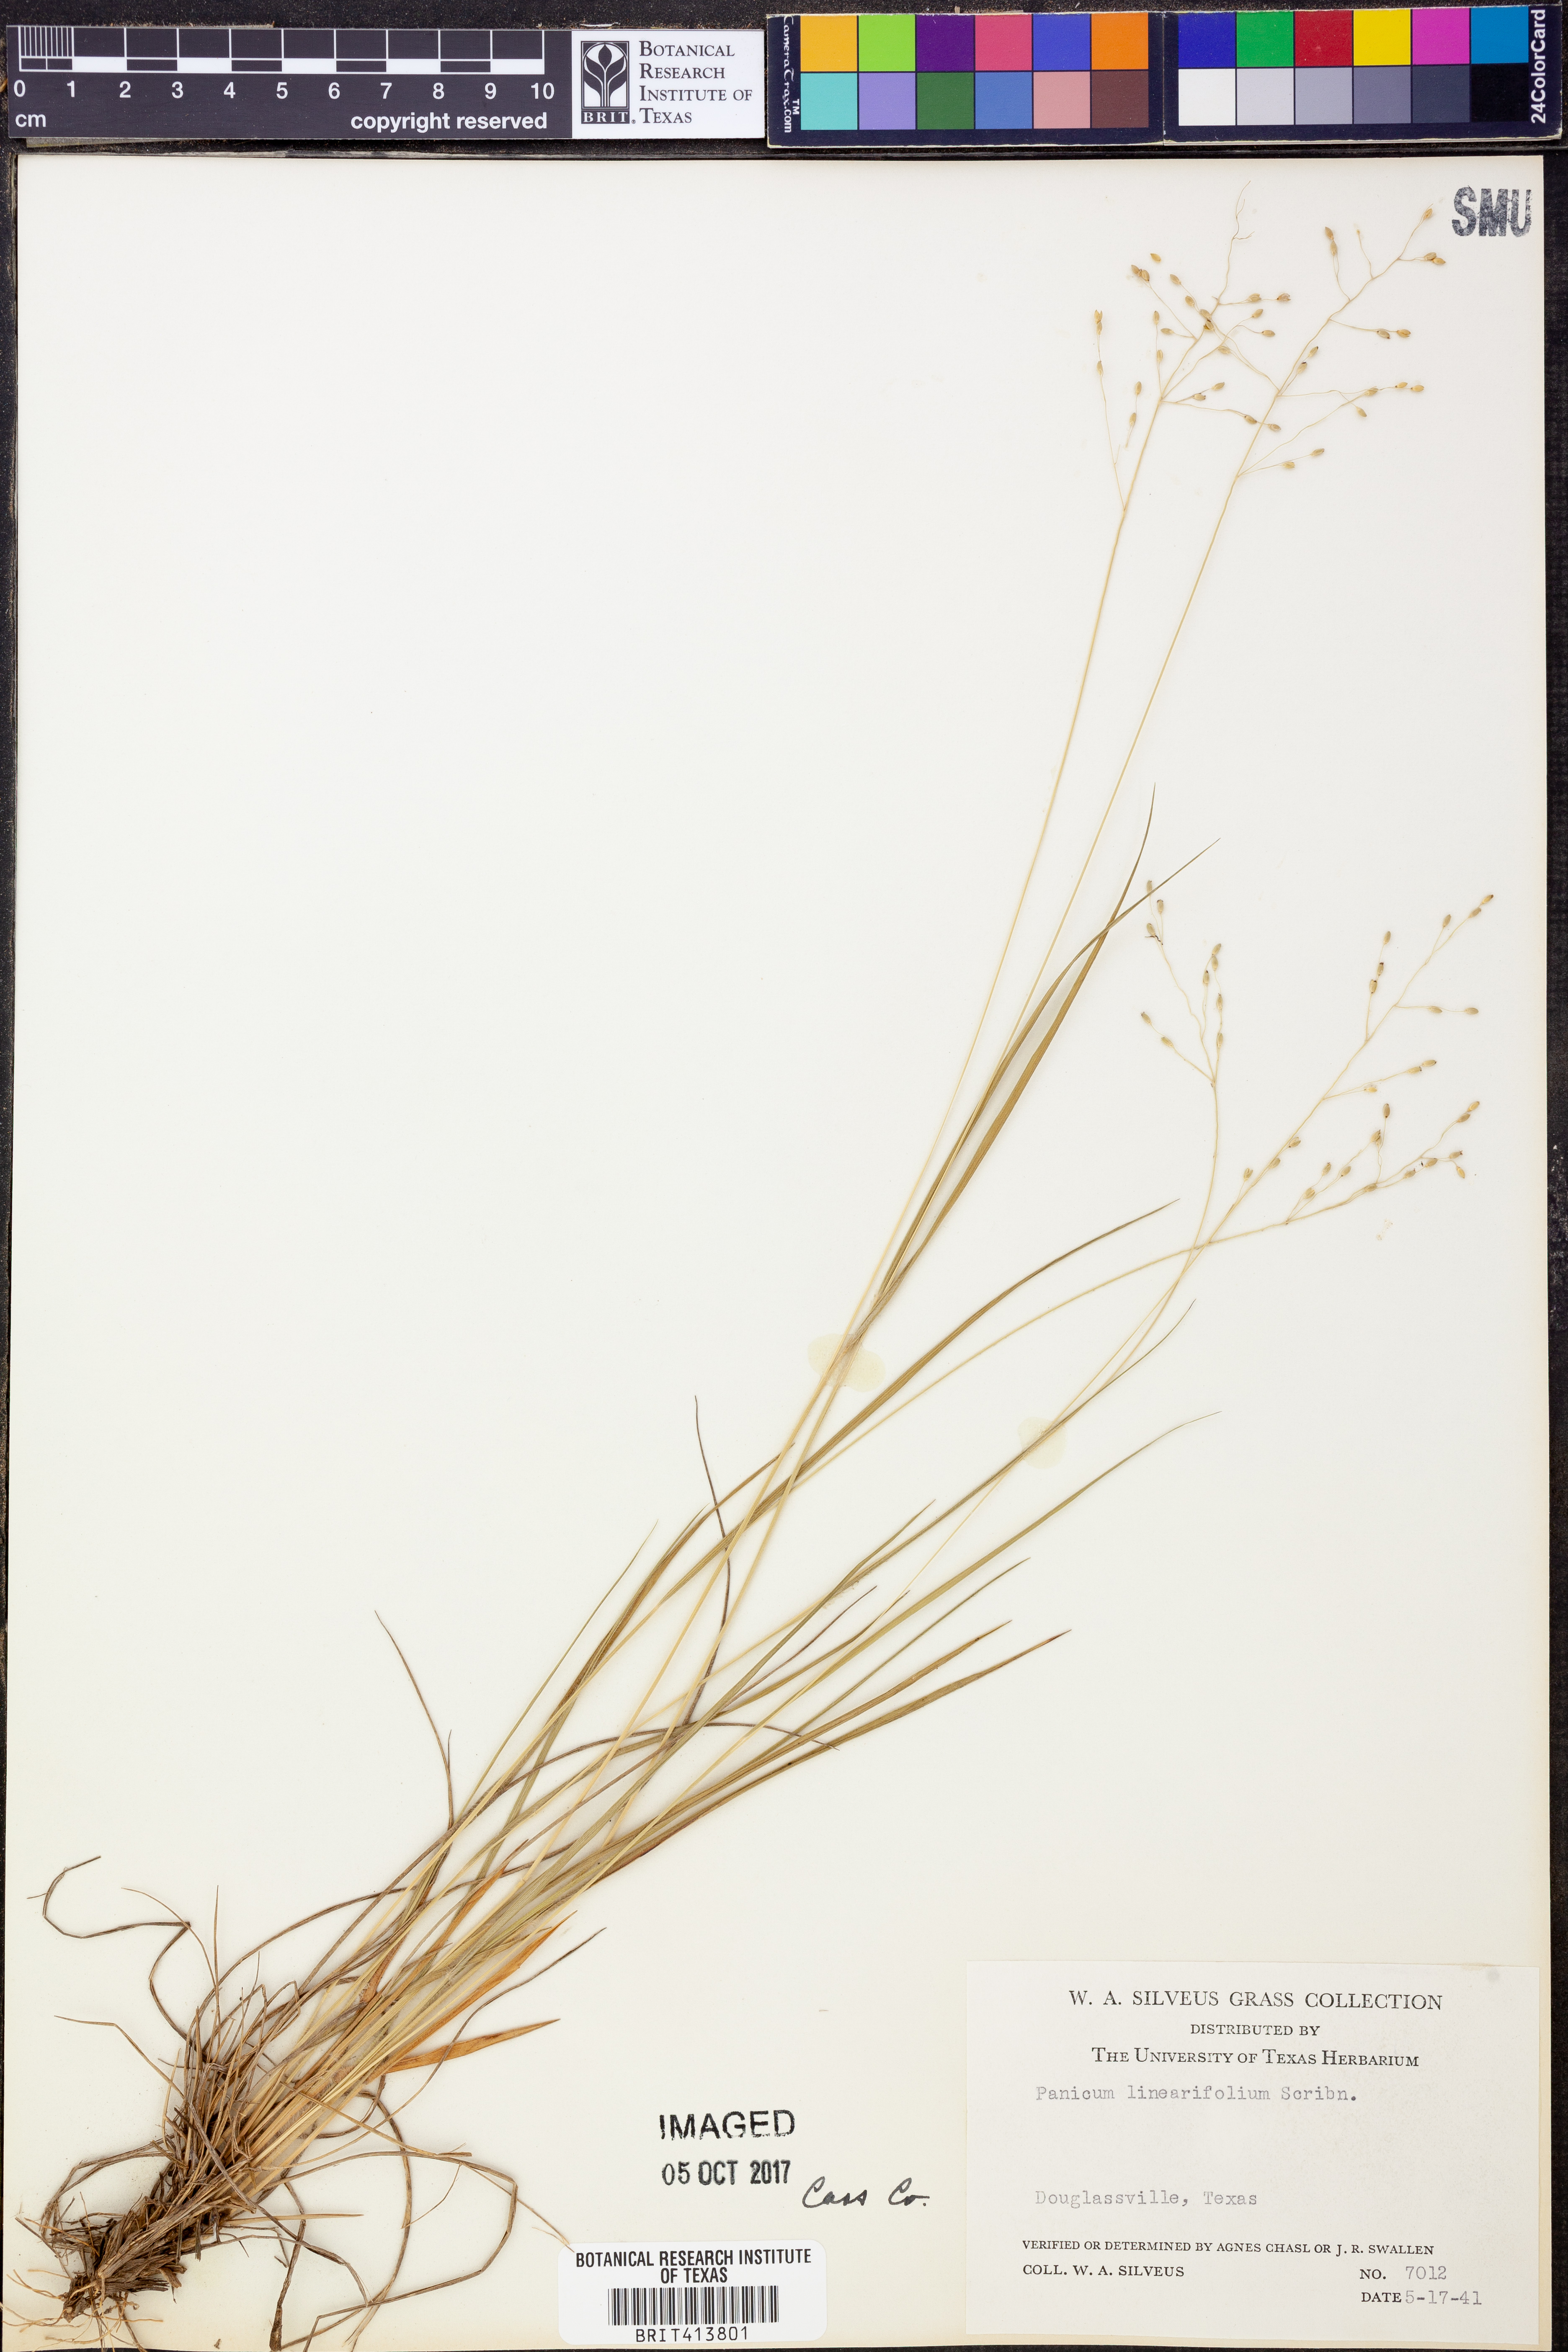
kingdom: Plantae
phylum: Tracheophyta
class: Liliopsida
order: Poales
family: Poaceae
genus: Dichanthelium
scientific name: Dichanthelium linearifolium
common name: Linear-leaved panicgrass
